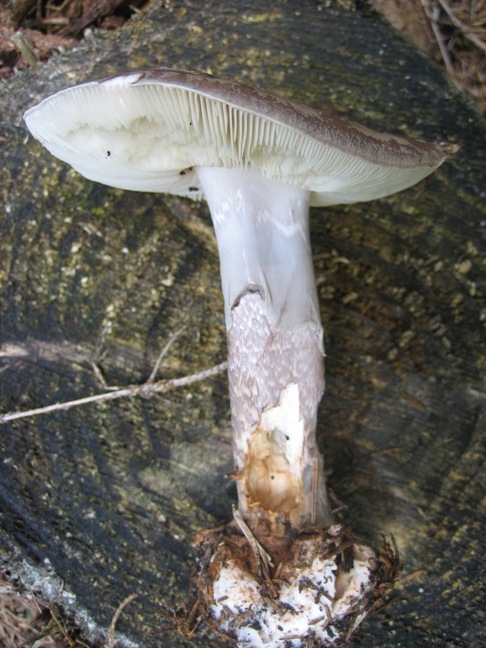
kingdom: Fungi
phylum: Basidiomycota
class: Agaricomycetes
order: Agaricales
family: Amanitaceae
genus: Amanita
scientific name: Amanita porphyria
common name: porfyr-fluesvamp
